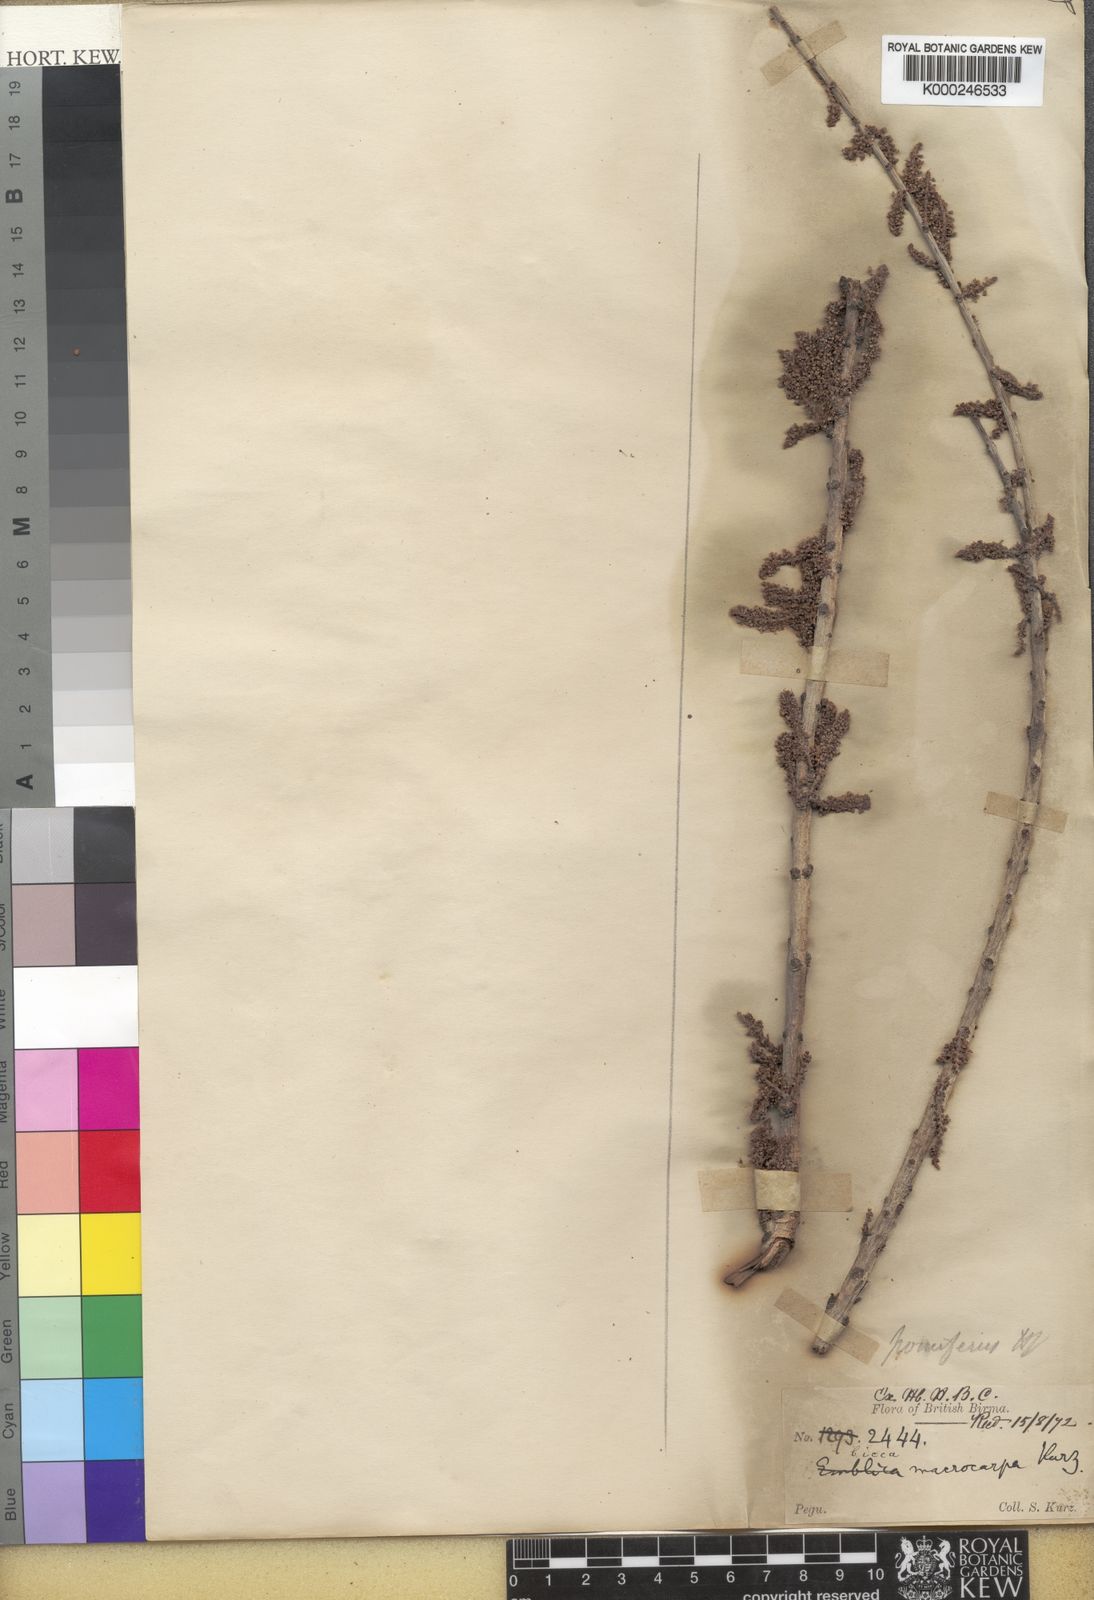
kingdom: Plantae
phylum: Tracheophyta
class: Magnoliopsida
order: Malpighiales
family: Phyllanthaceae
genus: Phyllanthus
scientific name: Phyllanthus
